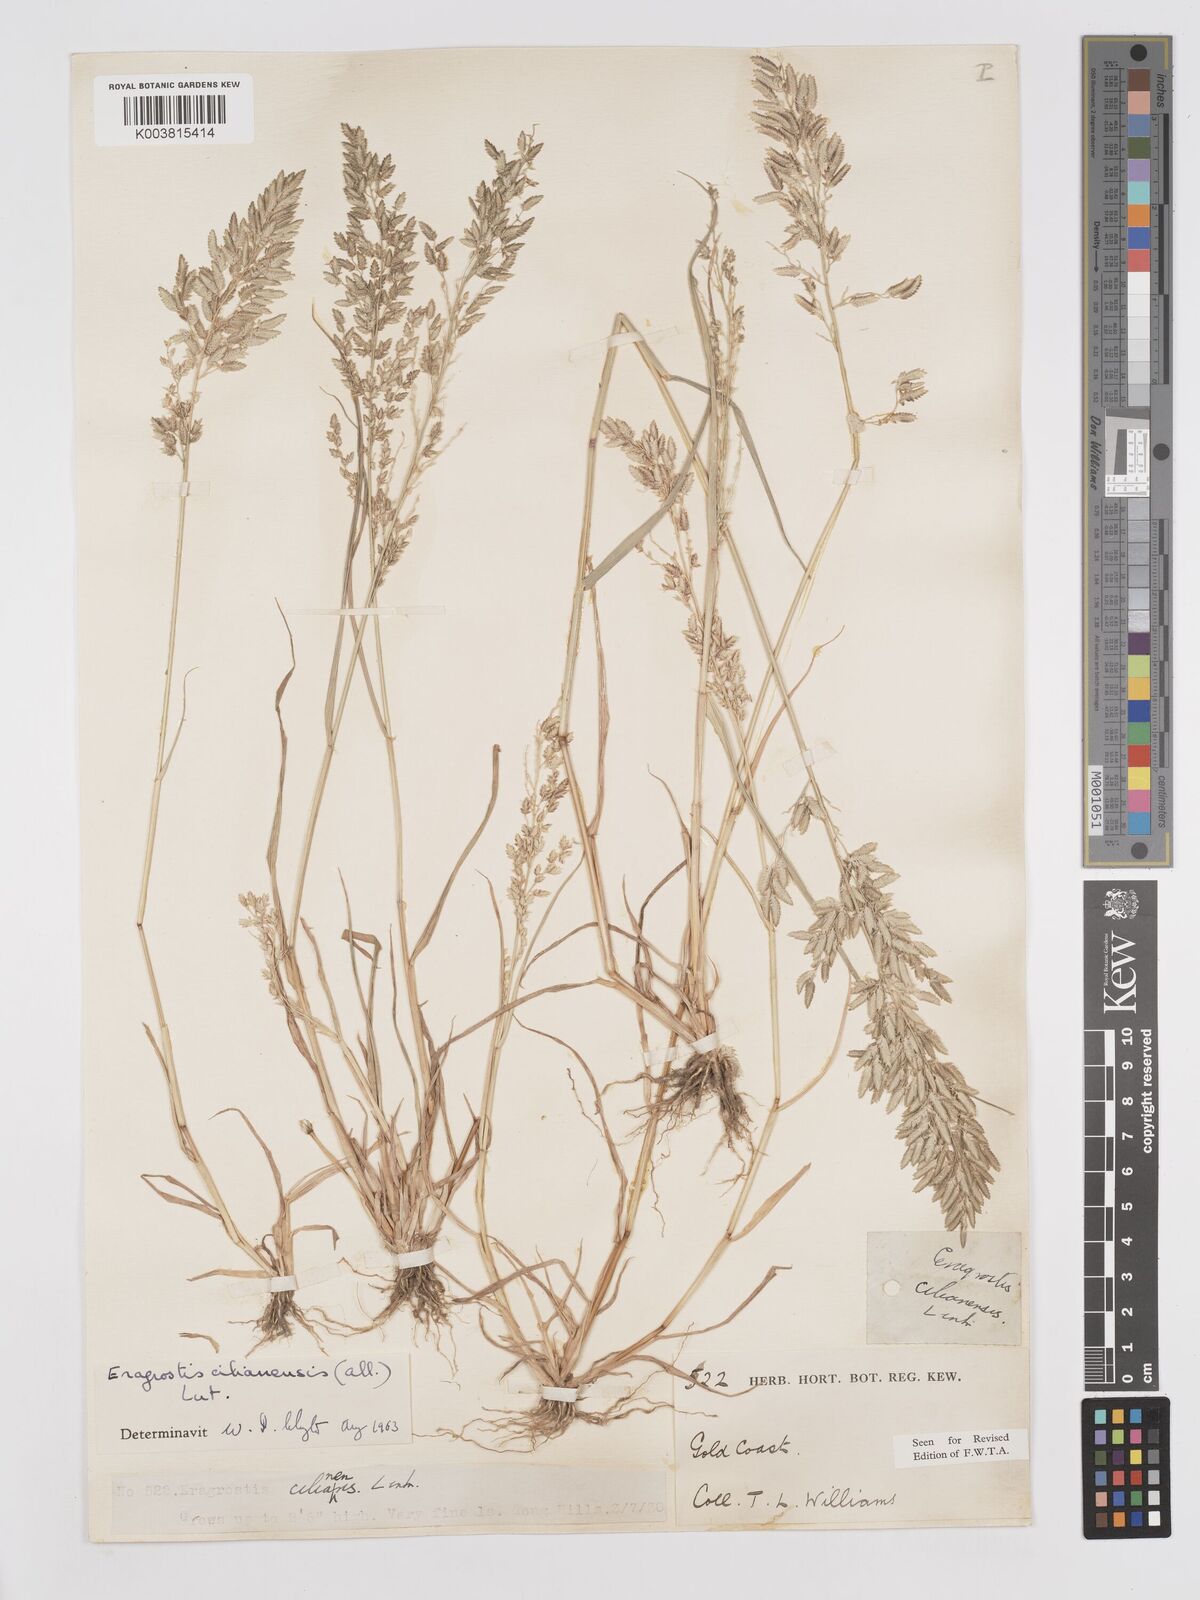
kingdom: Plantae
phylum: Tracheophyta
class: Liliopsida
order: Poales
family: Poaceae
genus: Eragrostis
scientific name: Eragrostis cilianensis
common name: Stinkgrass
